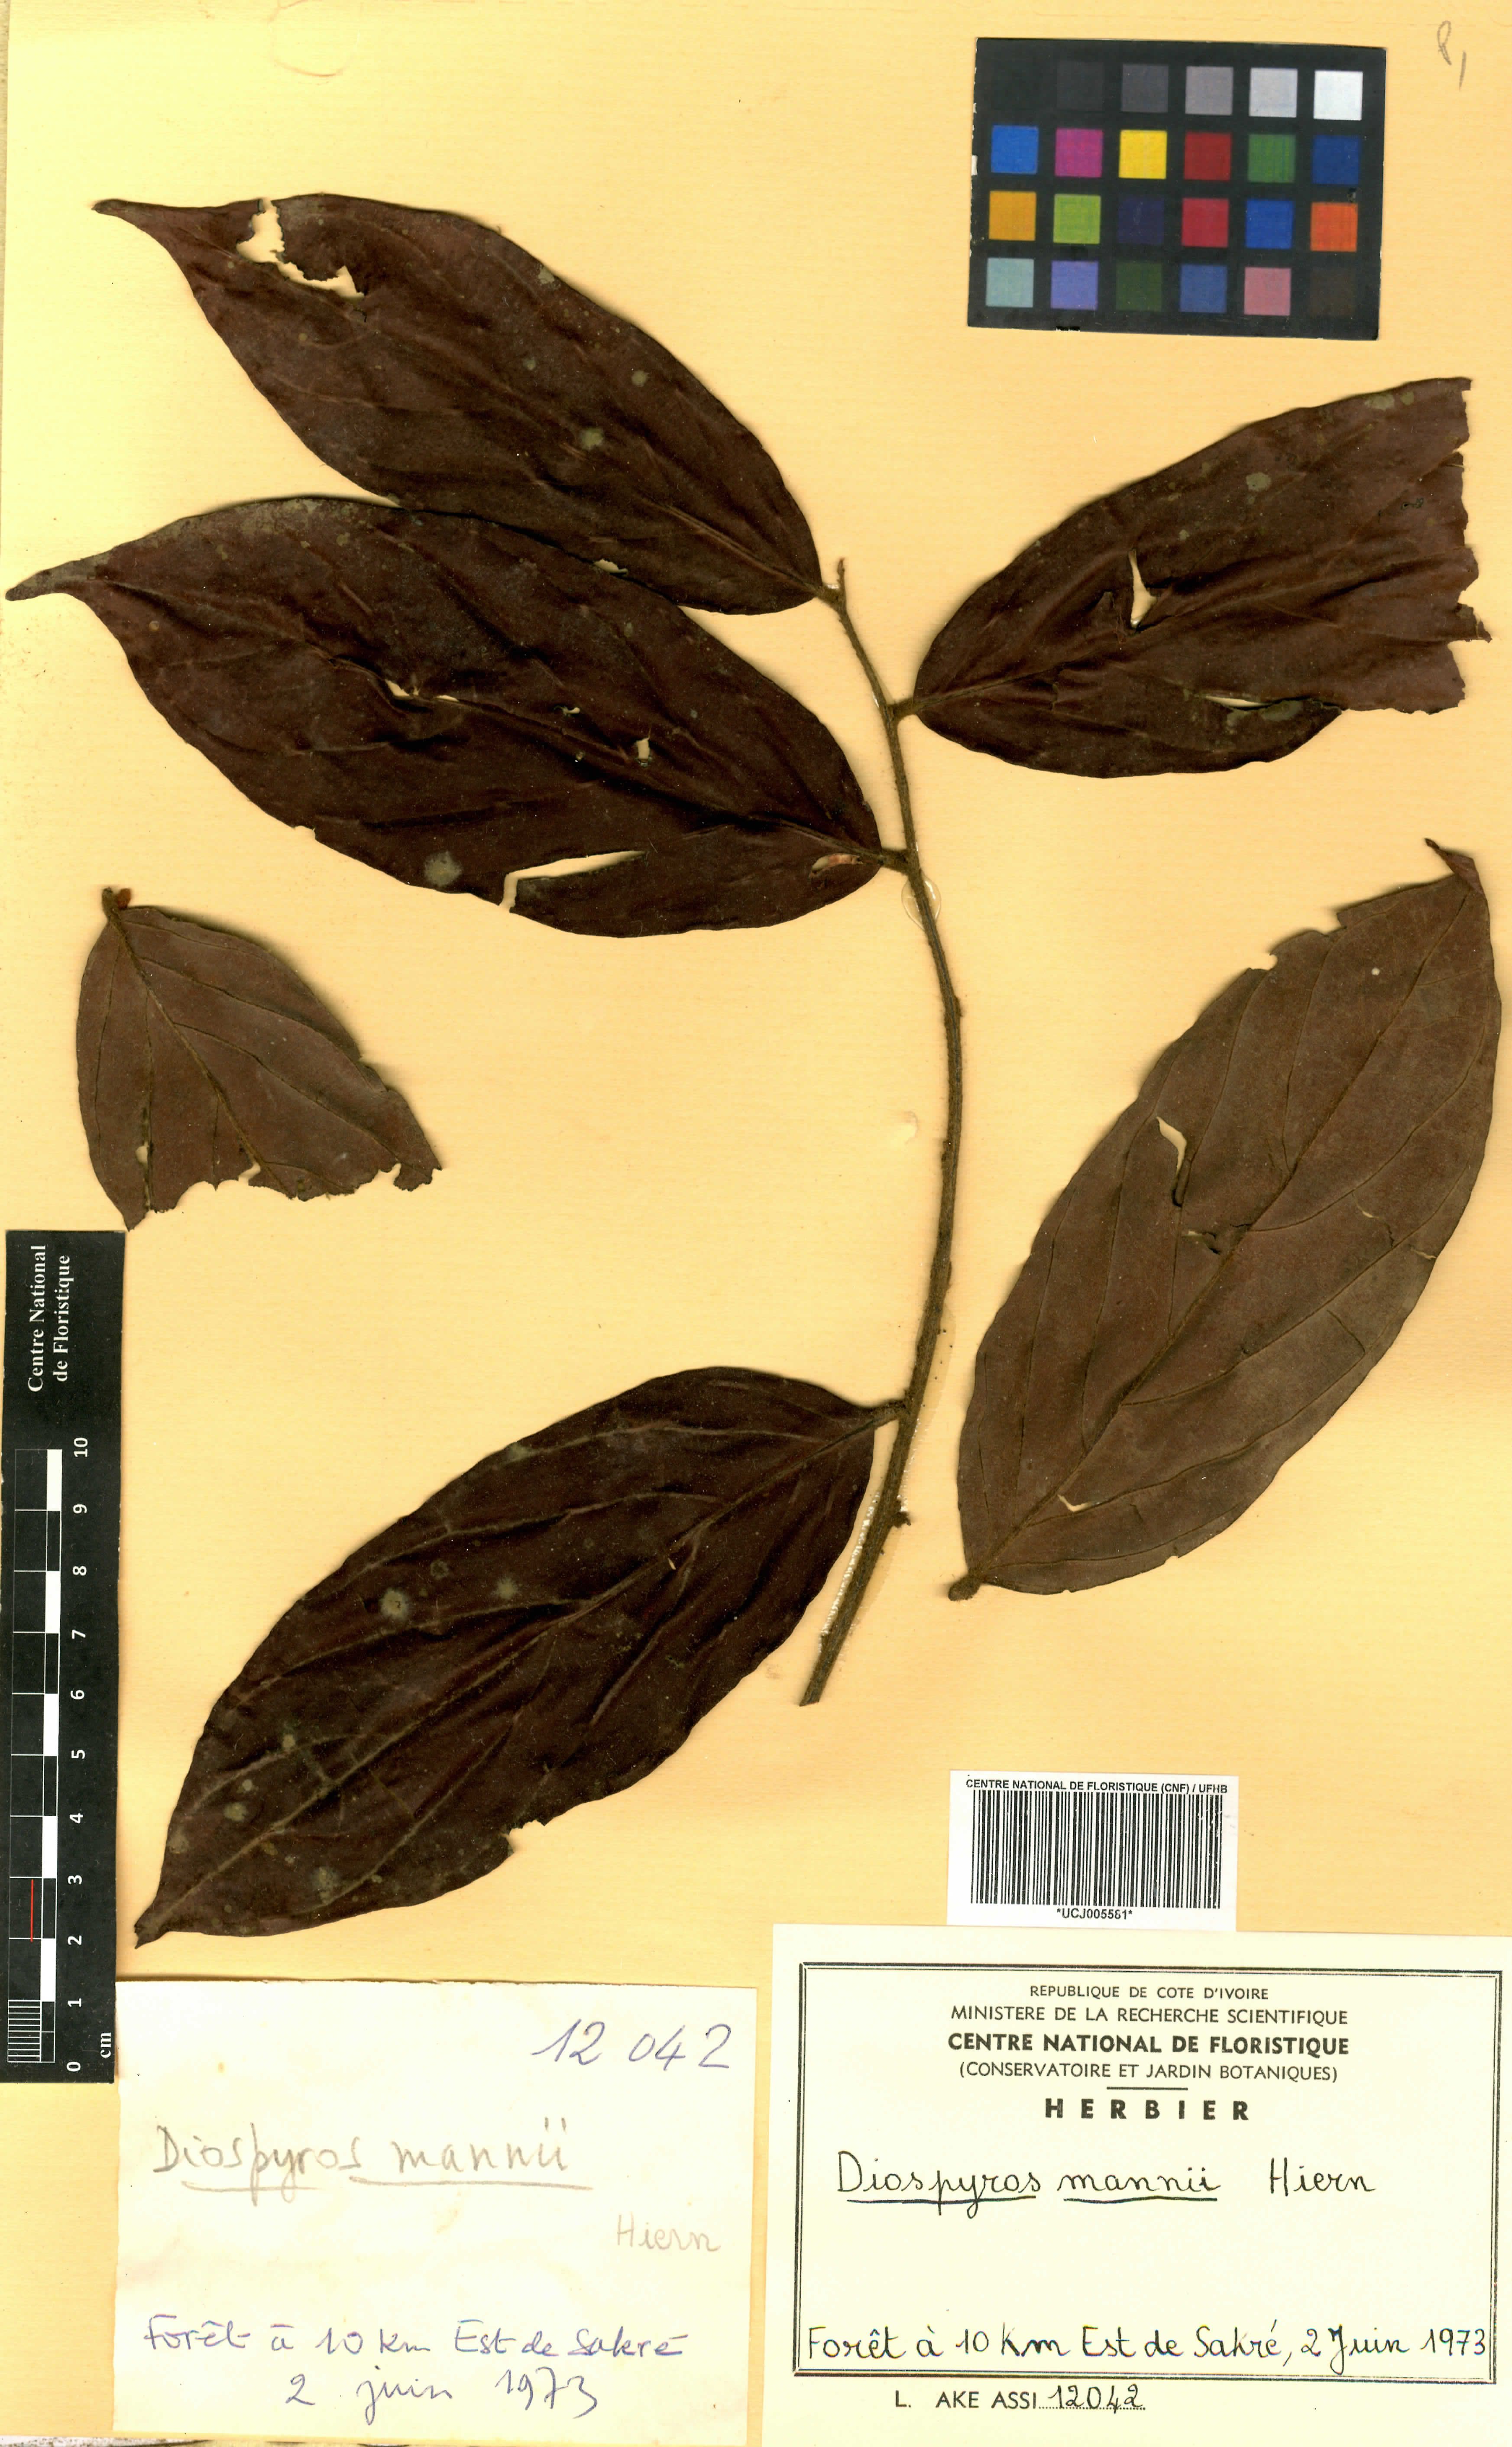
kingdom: Plantae
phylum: Tracheophyta
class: Magnoliopsida
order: Ericales
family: Ebenaceae
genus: Diospyros
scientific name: Diospyros mannii
